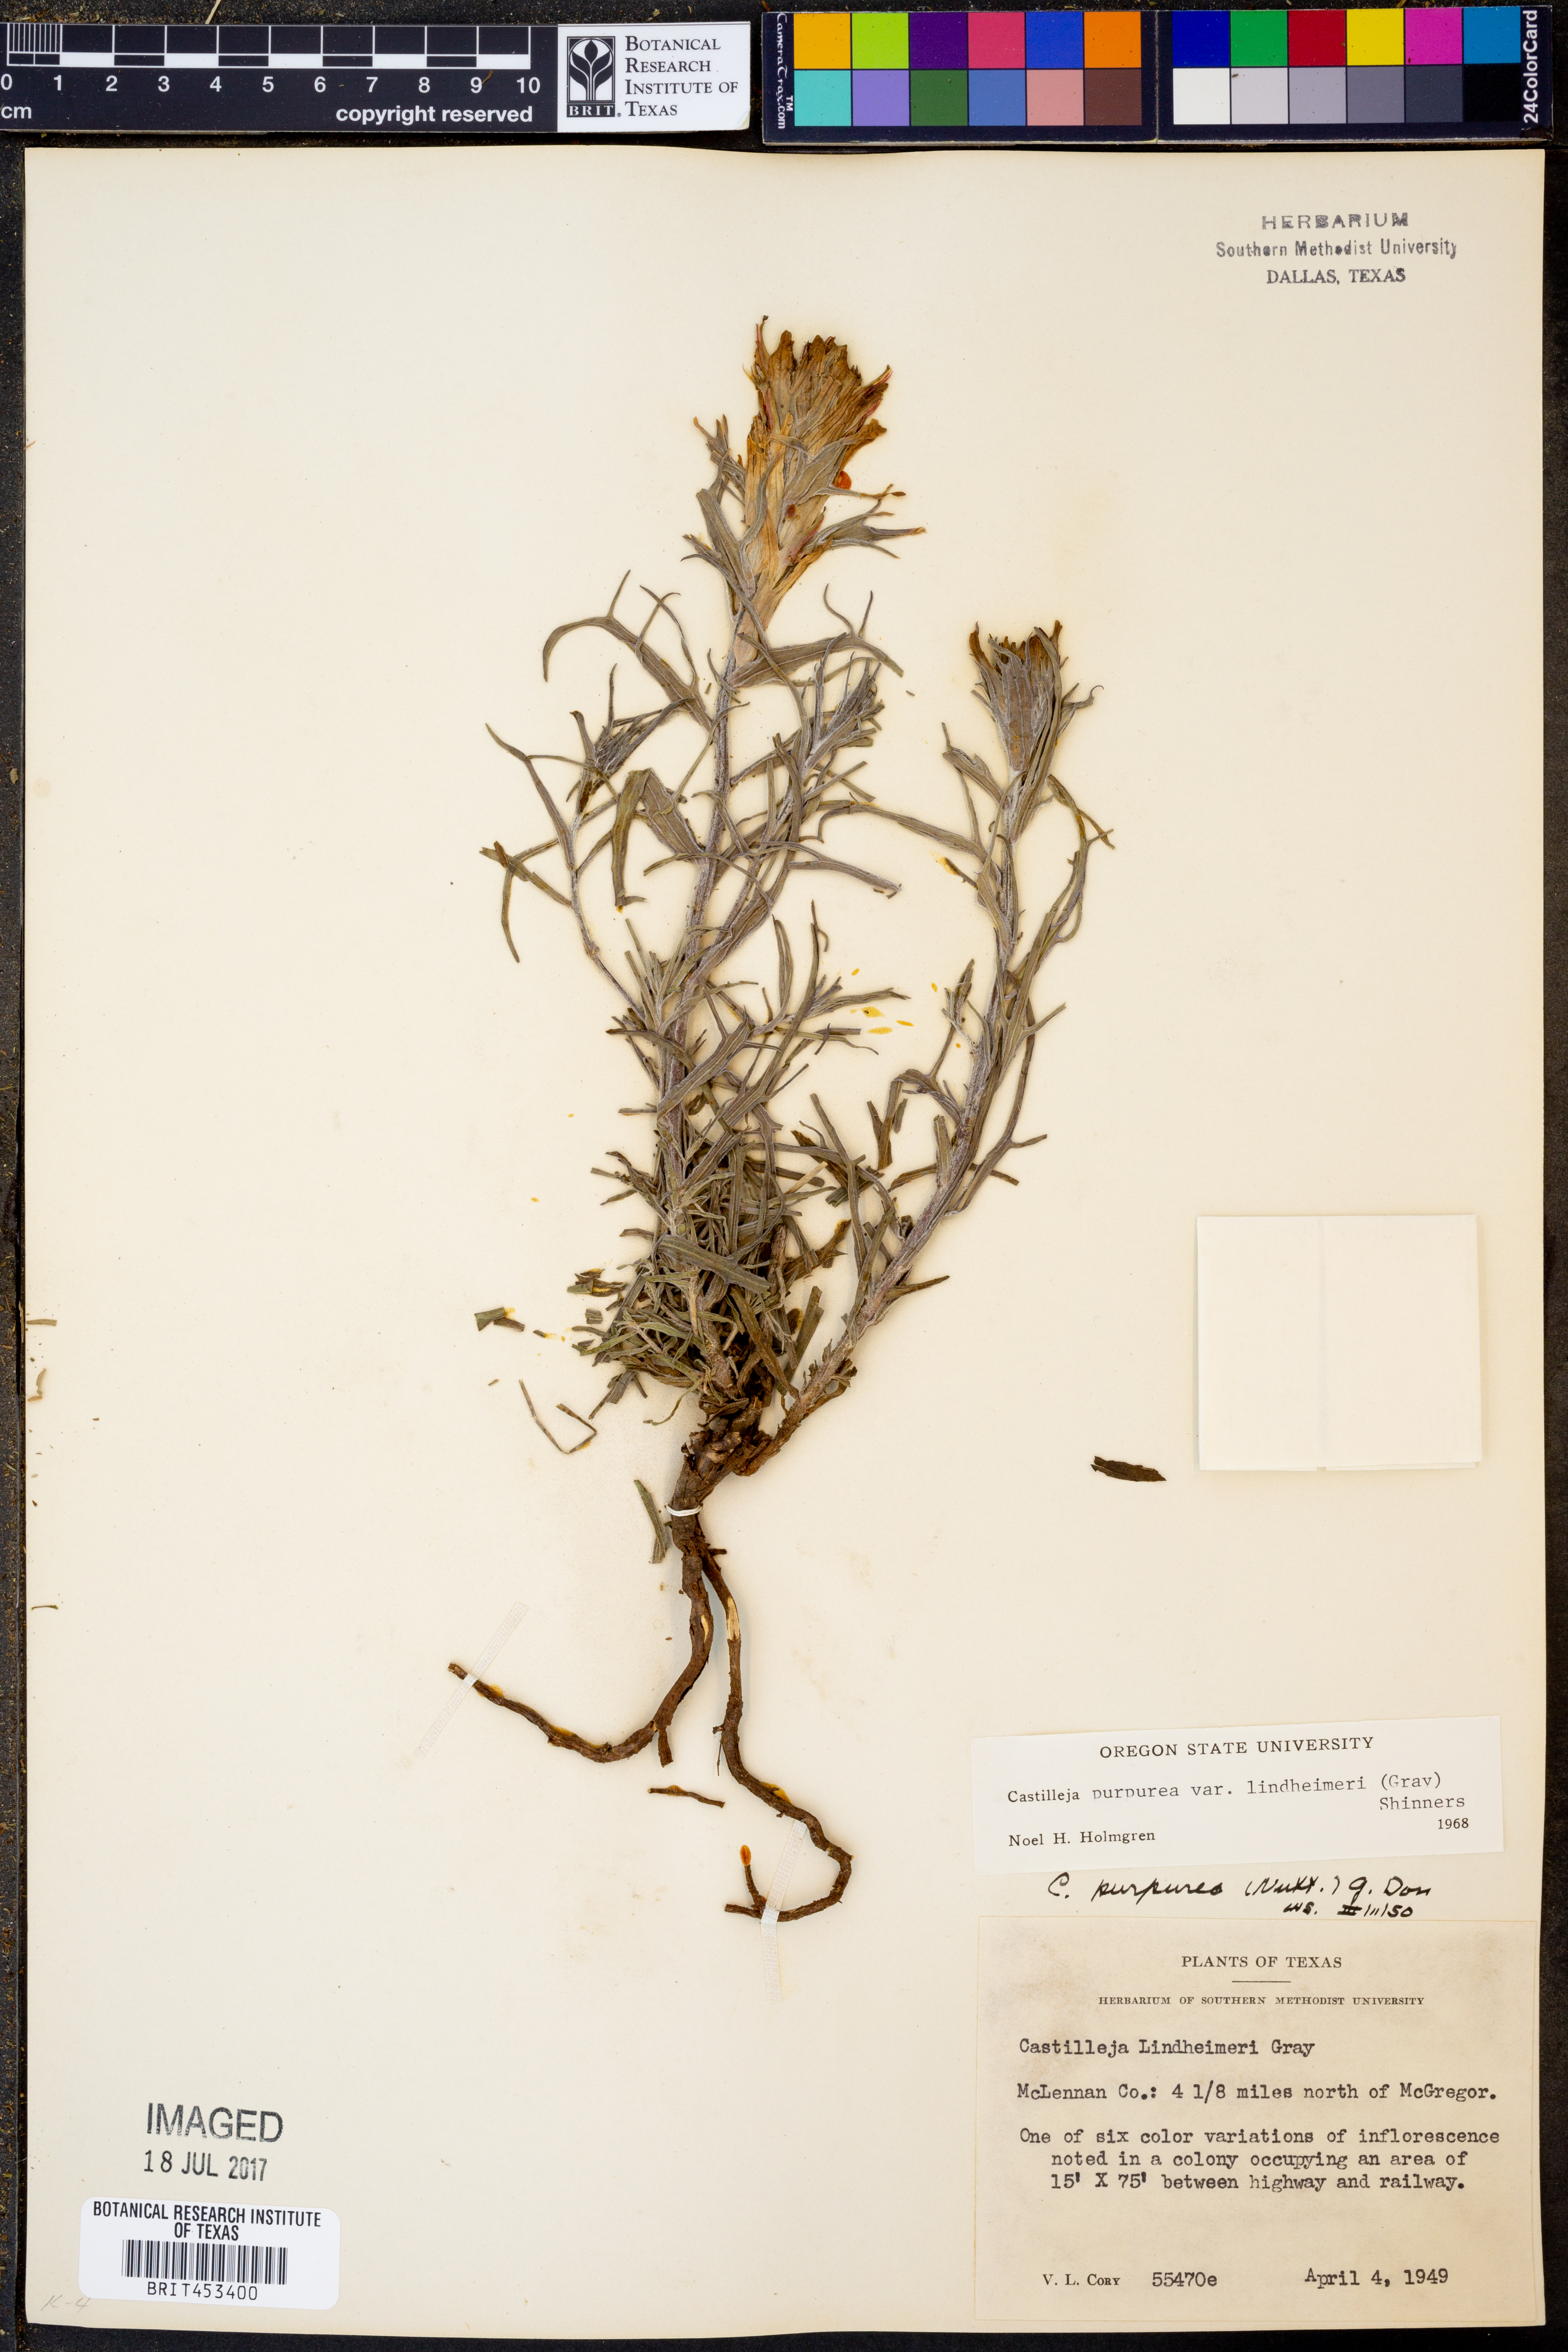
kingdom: Plantae
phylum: Tracheophyta
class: Magnoliopsida
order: Lamiales
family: Orobanchaceae
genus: Castilleja
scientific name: Castilleja lindheimeri
